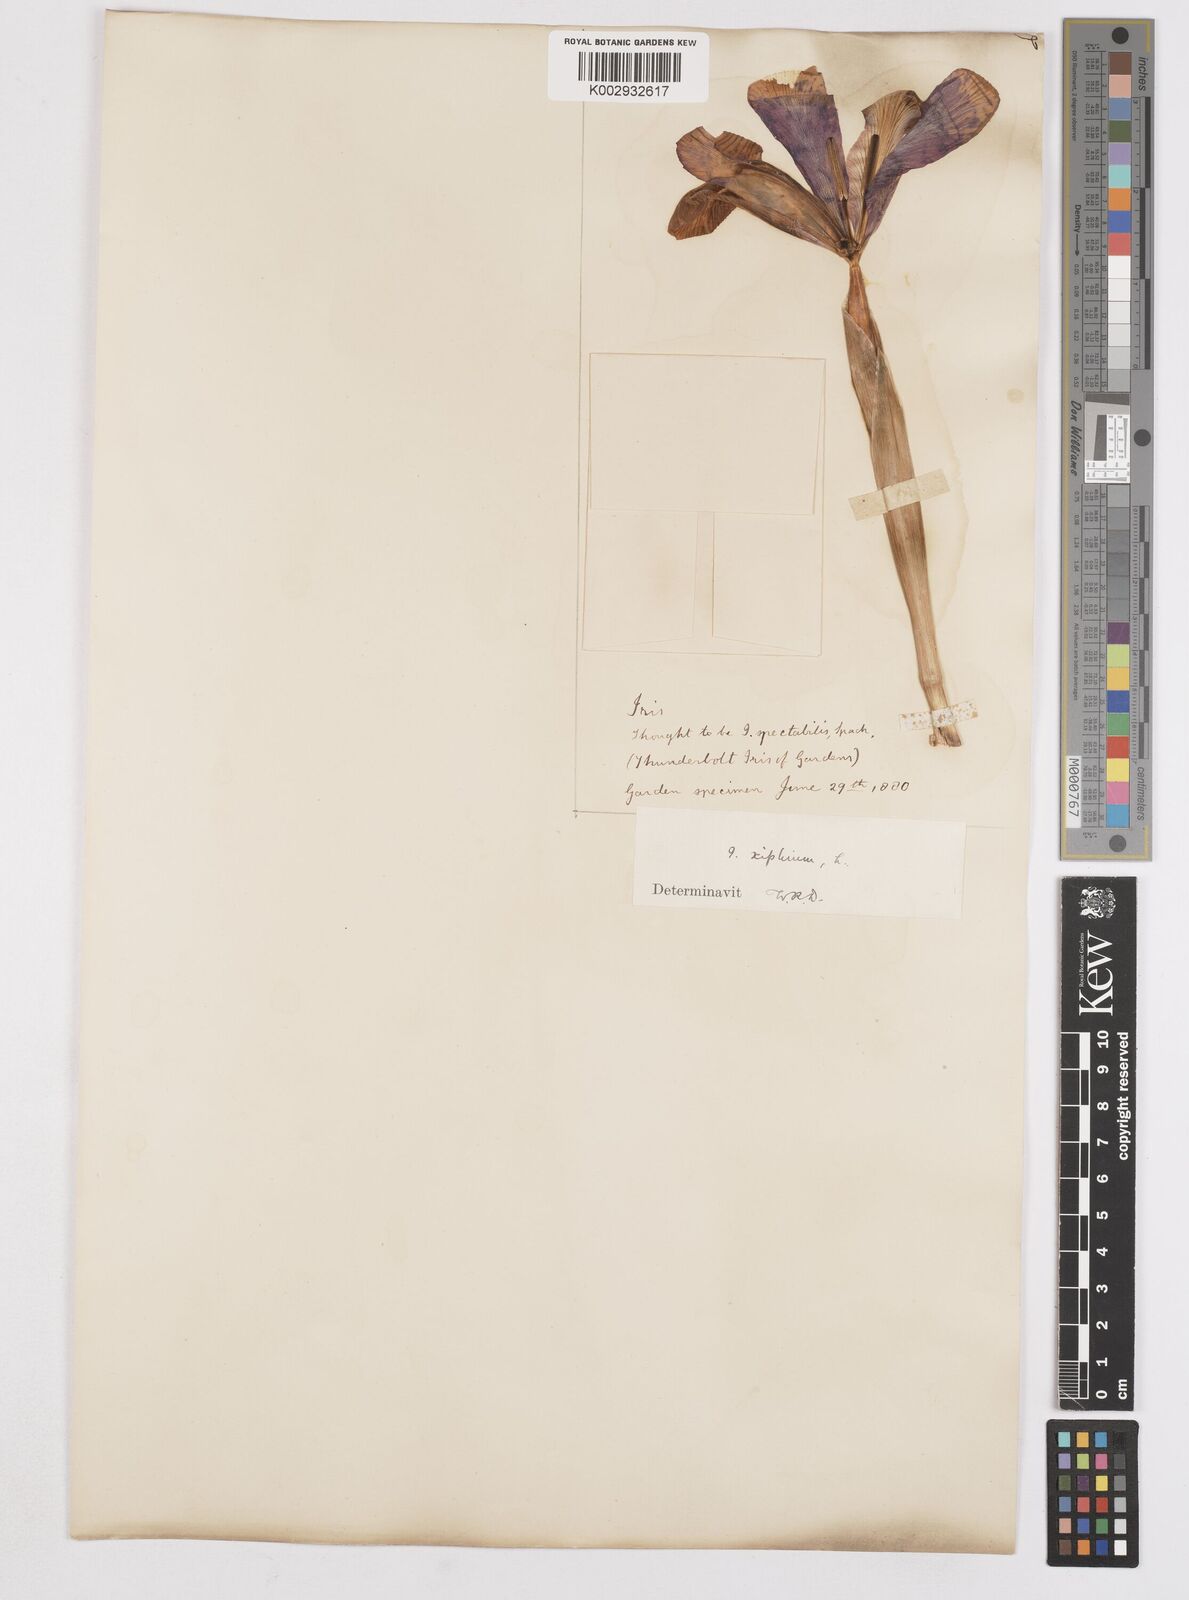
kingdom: Plantae
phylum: Tracheophyta
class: Liliopsida
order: Asparagales
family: Iridaceae
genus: Iris
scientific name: Iris xiphium
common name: Spanish iris
